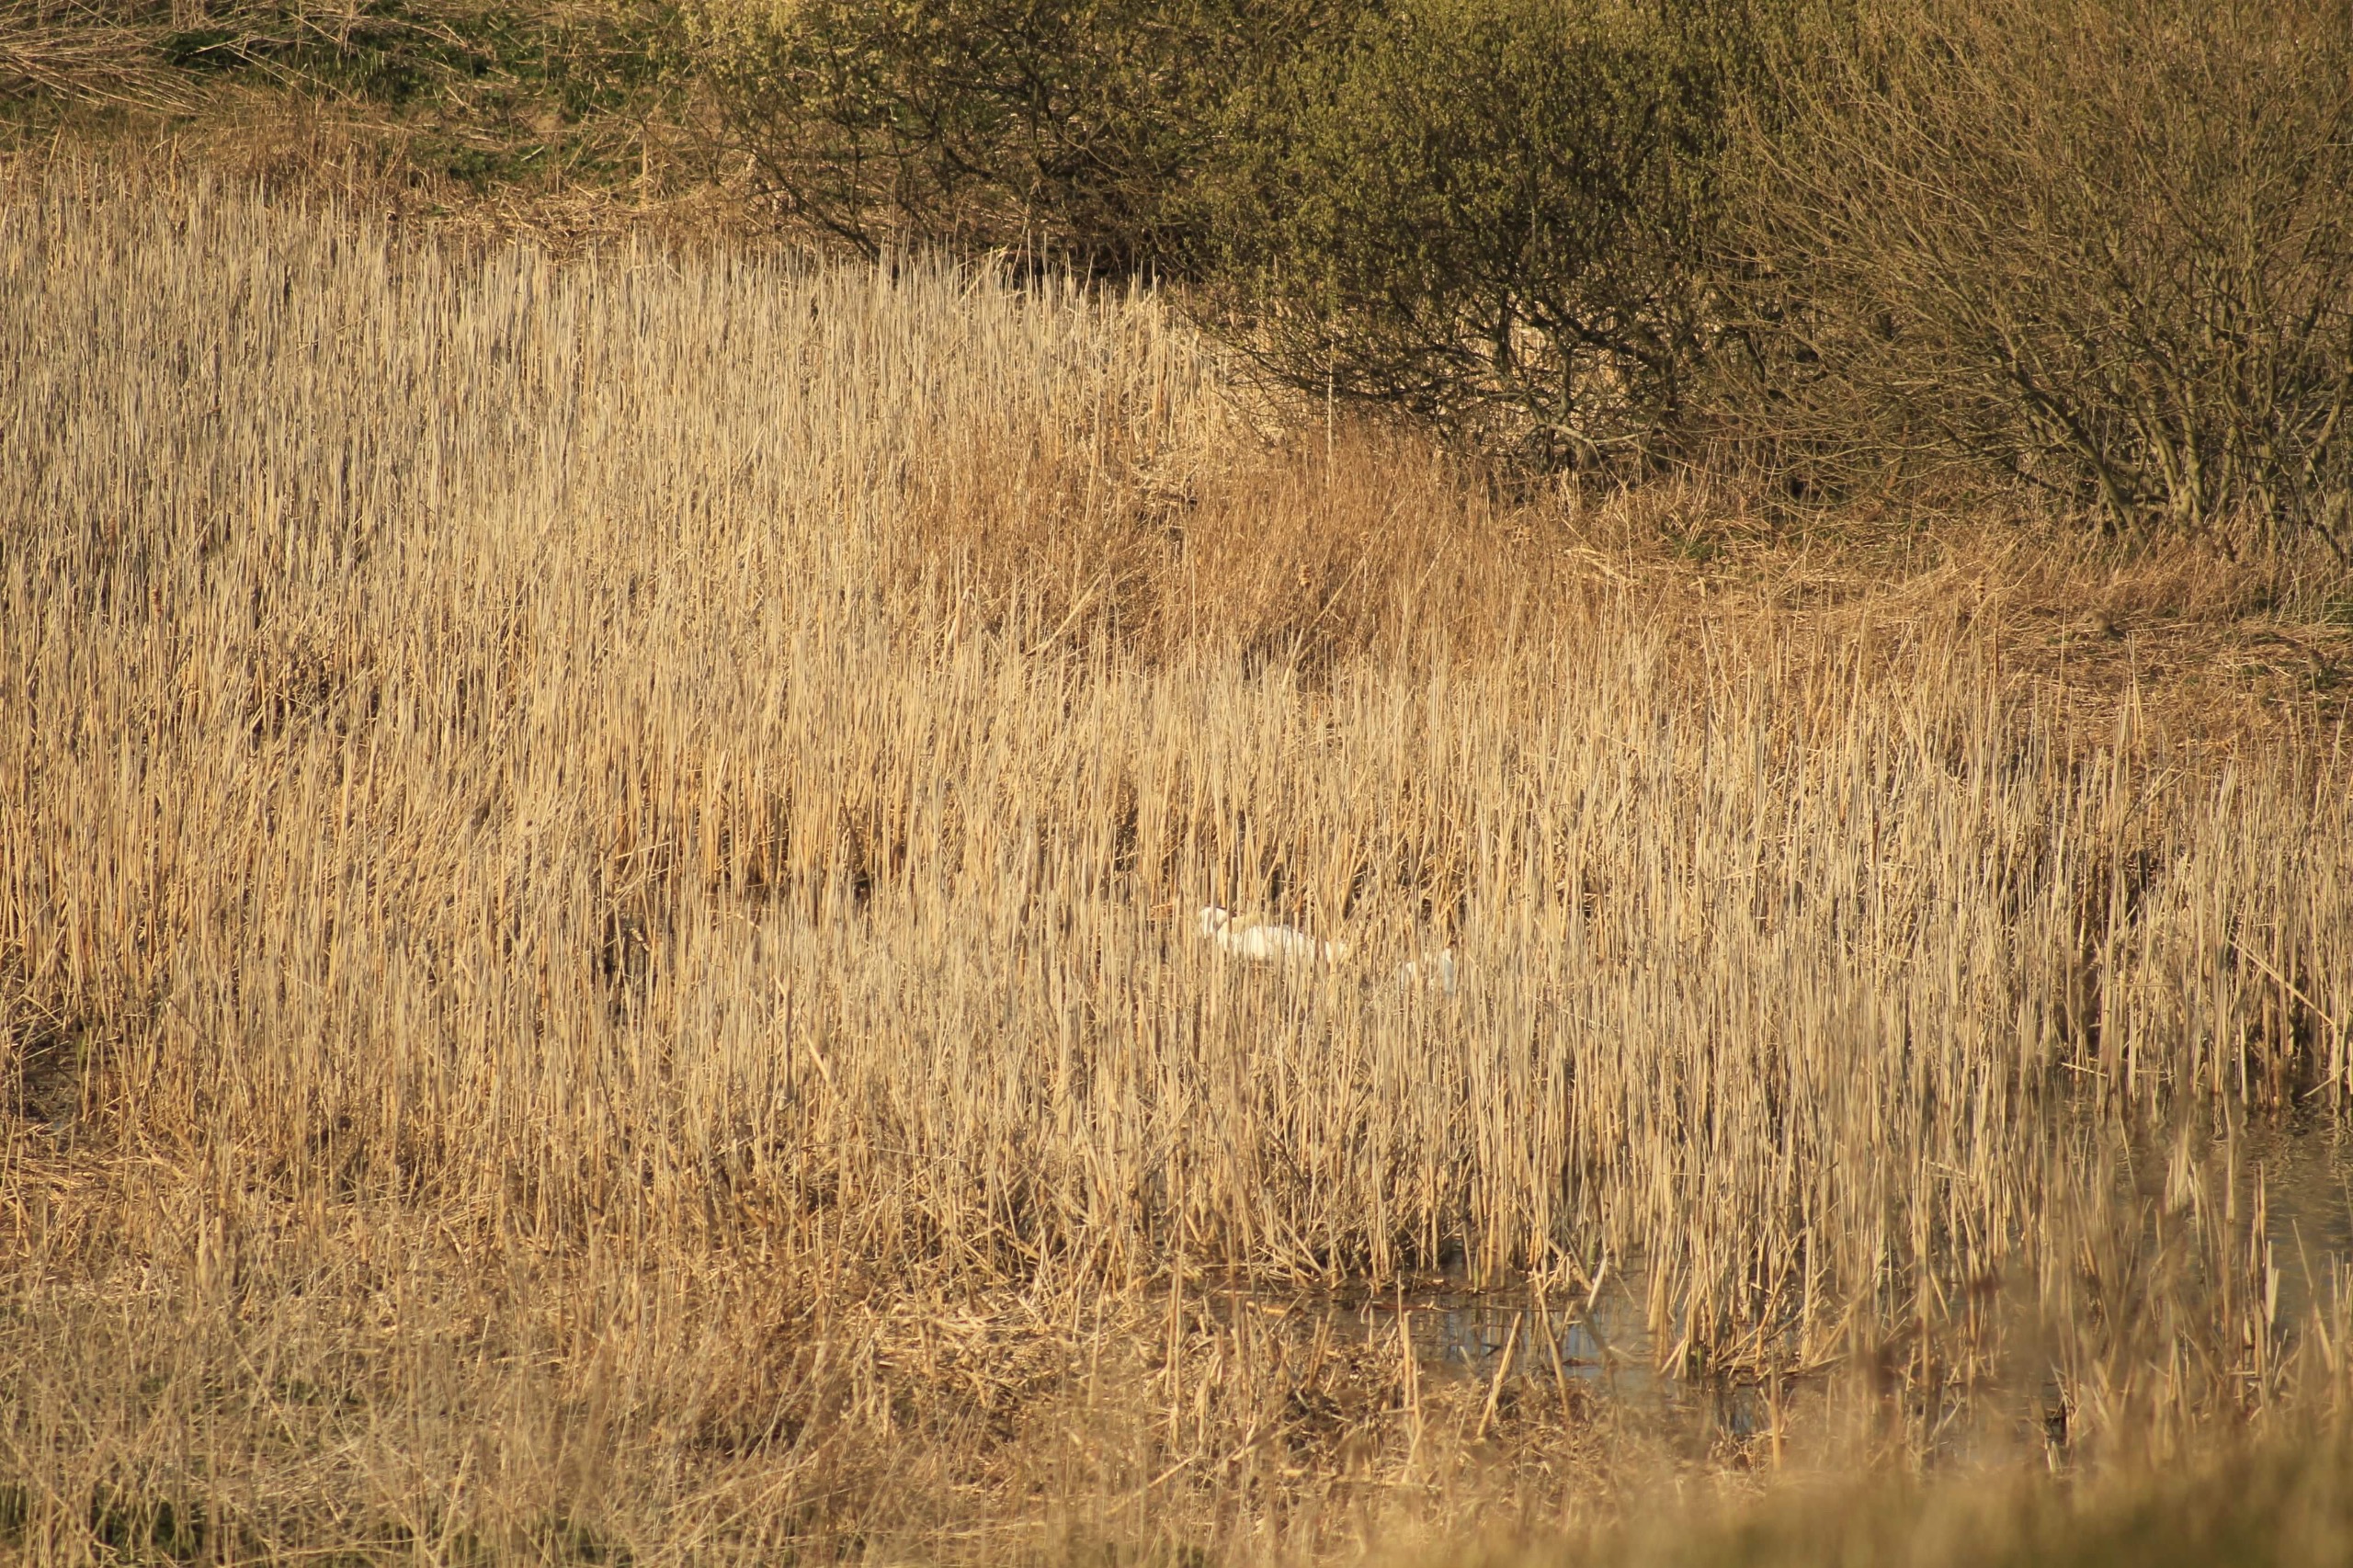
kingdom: Animalia
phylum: Chordata
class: Aves
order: Anseriformes
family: Anatidae
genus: Cygnus
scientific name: Cygnus olor
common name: Knopsvane
